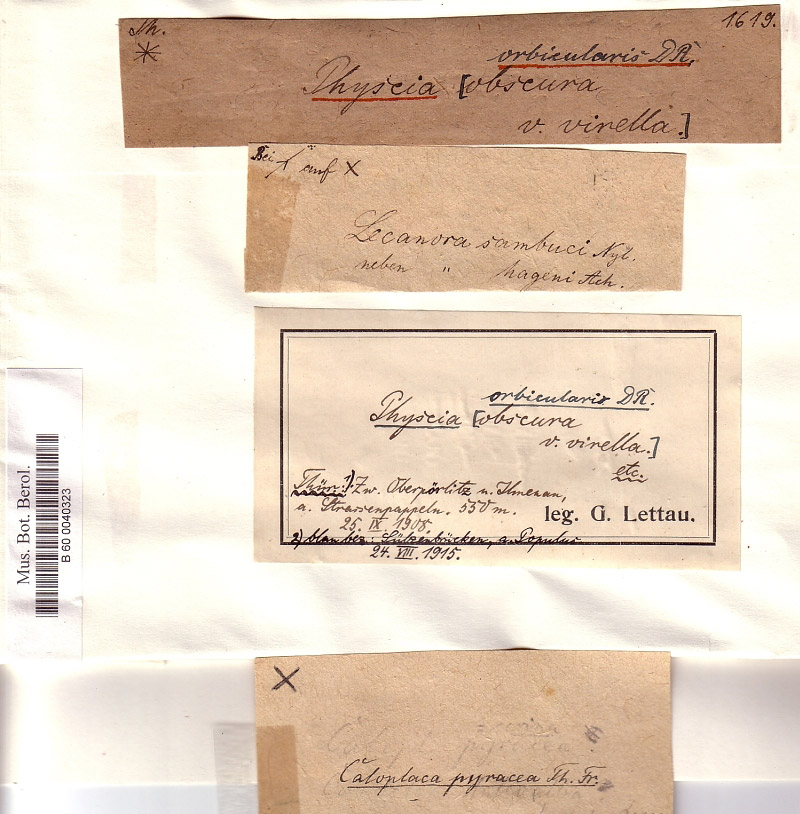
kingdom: Fungi
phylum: Ascomycota
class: Lecanoromycetes
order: Caliciales
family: Physciaceae
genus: Phaeophyscia
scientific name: Phaeophyscia orbicularis
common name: Mealy shadow lichen
